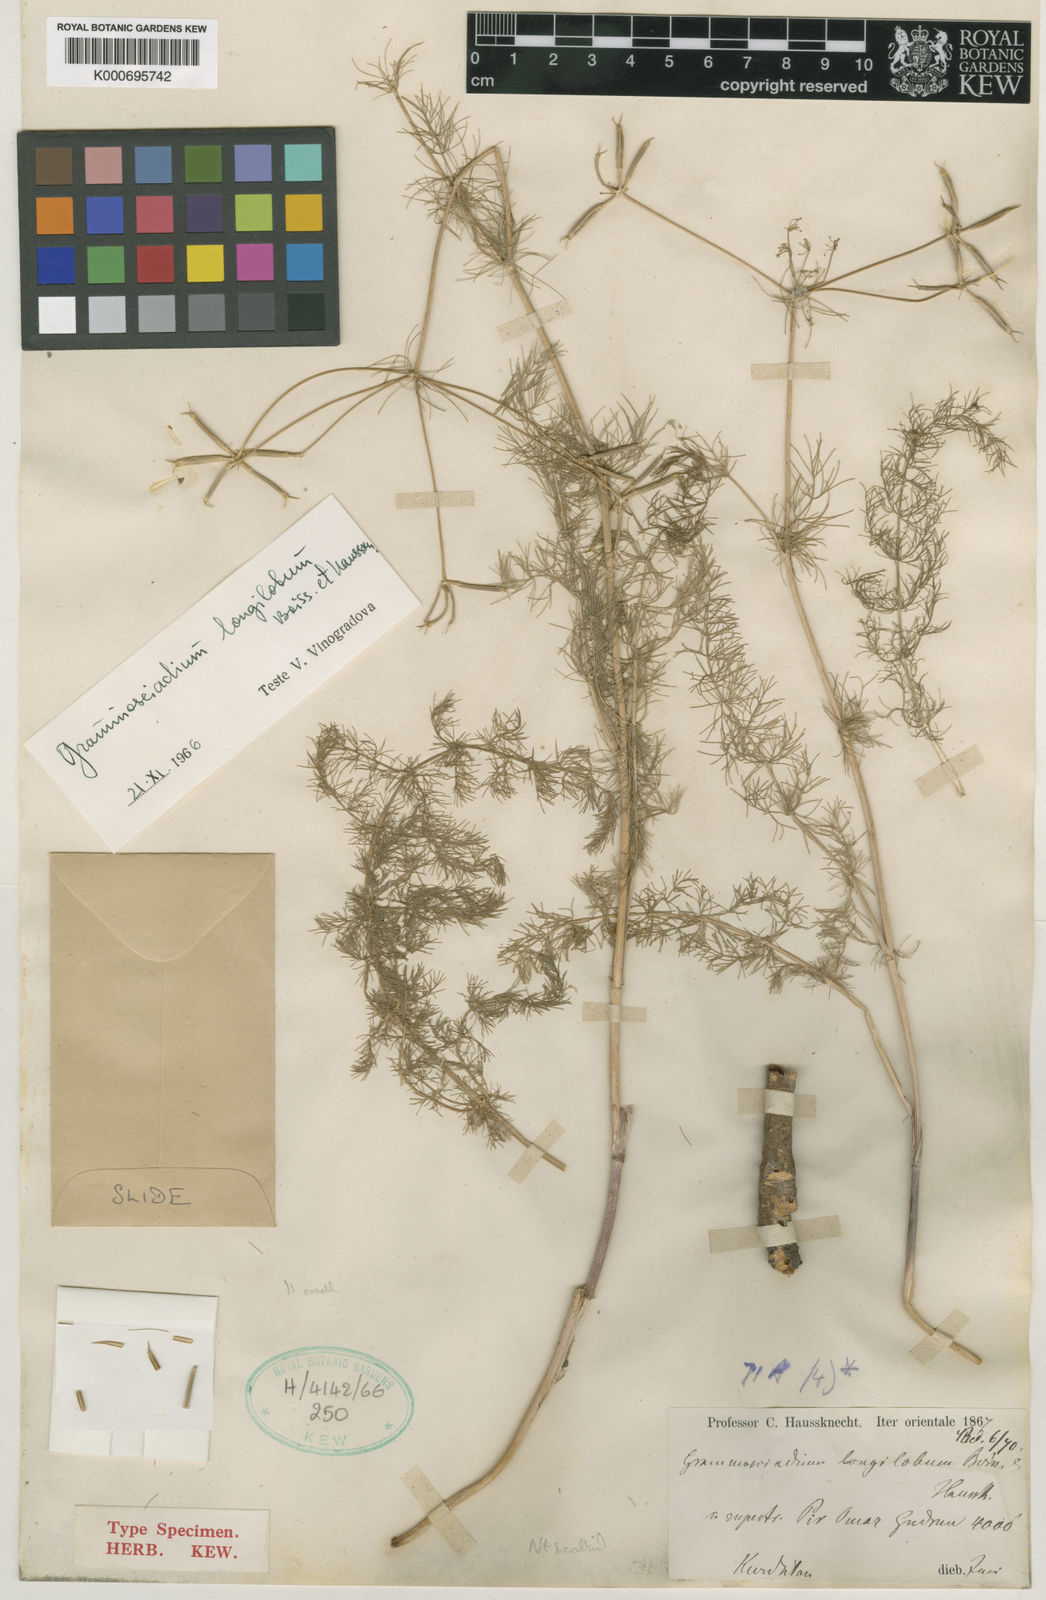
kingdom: Plantae
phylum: Tracheophyta
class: Magnoliopsida
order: Apiales
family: Apiaceae
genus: Grammosciadium
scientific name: Grammosciadium scabridum
